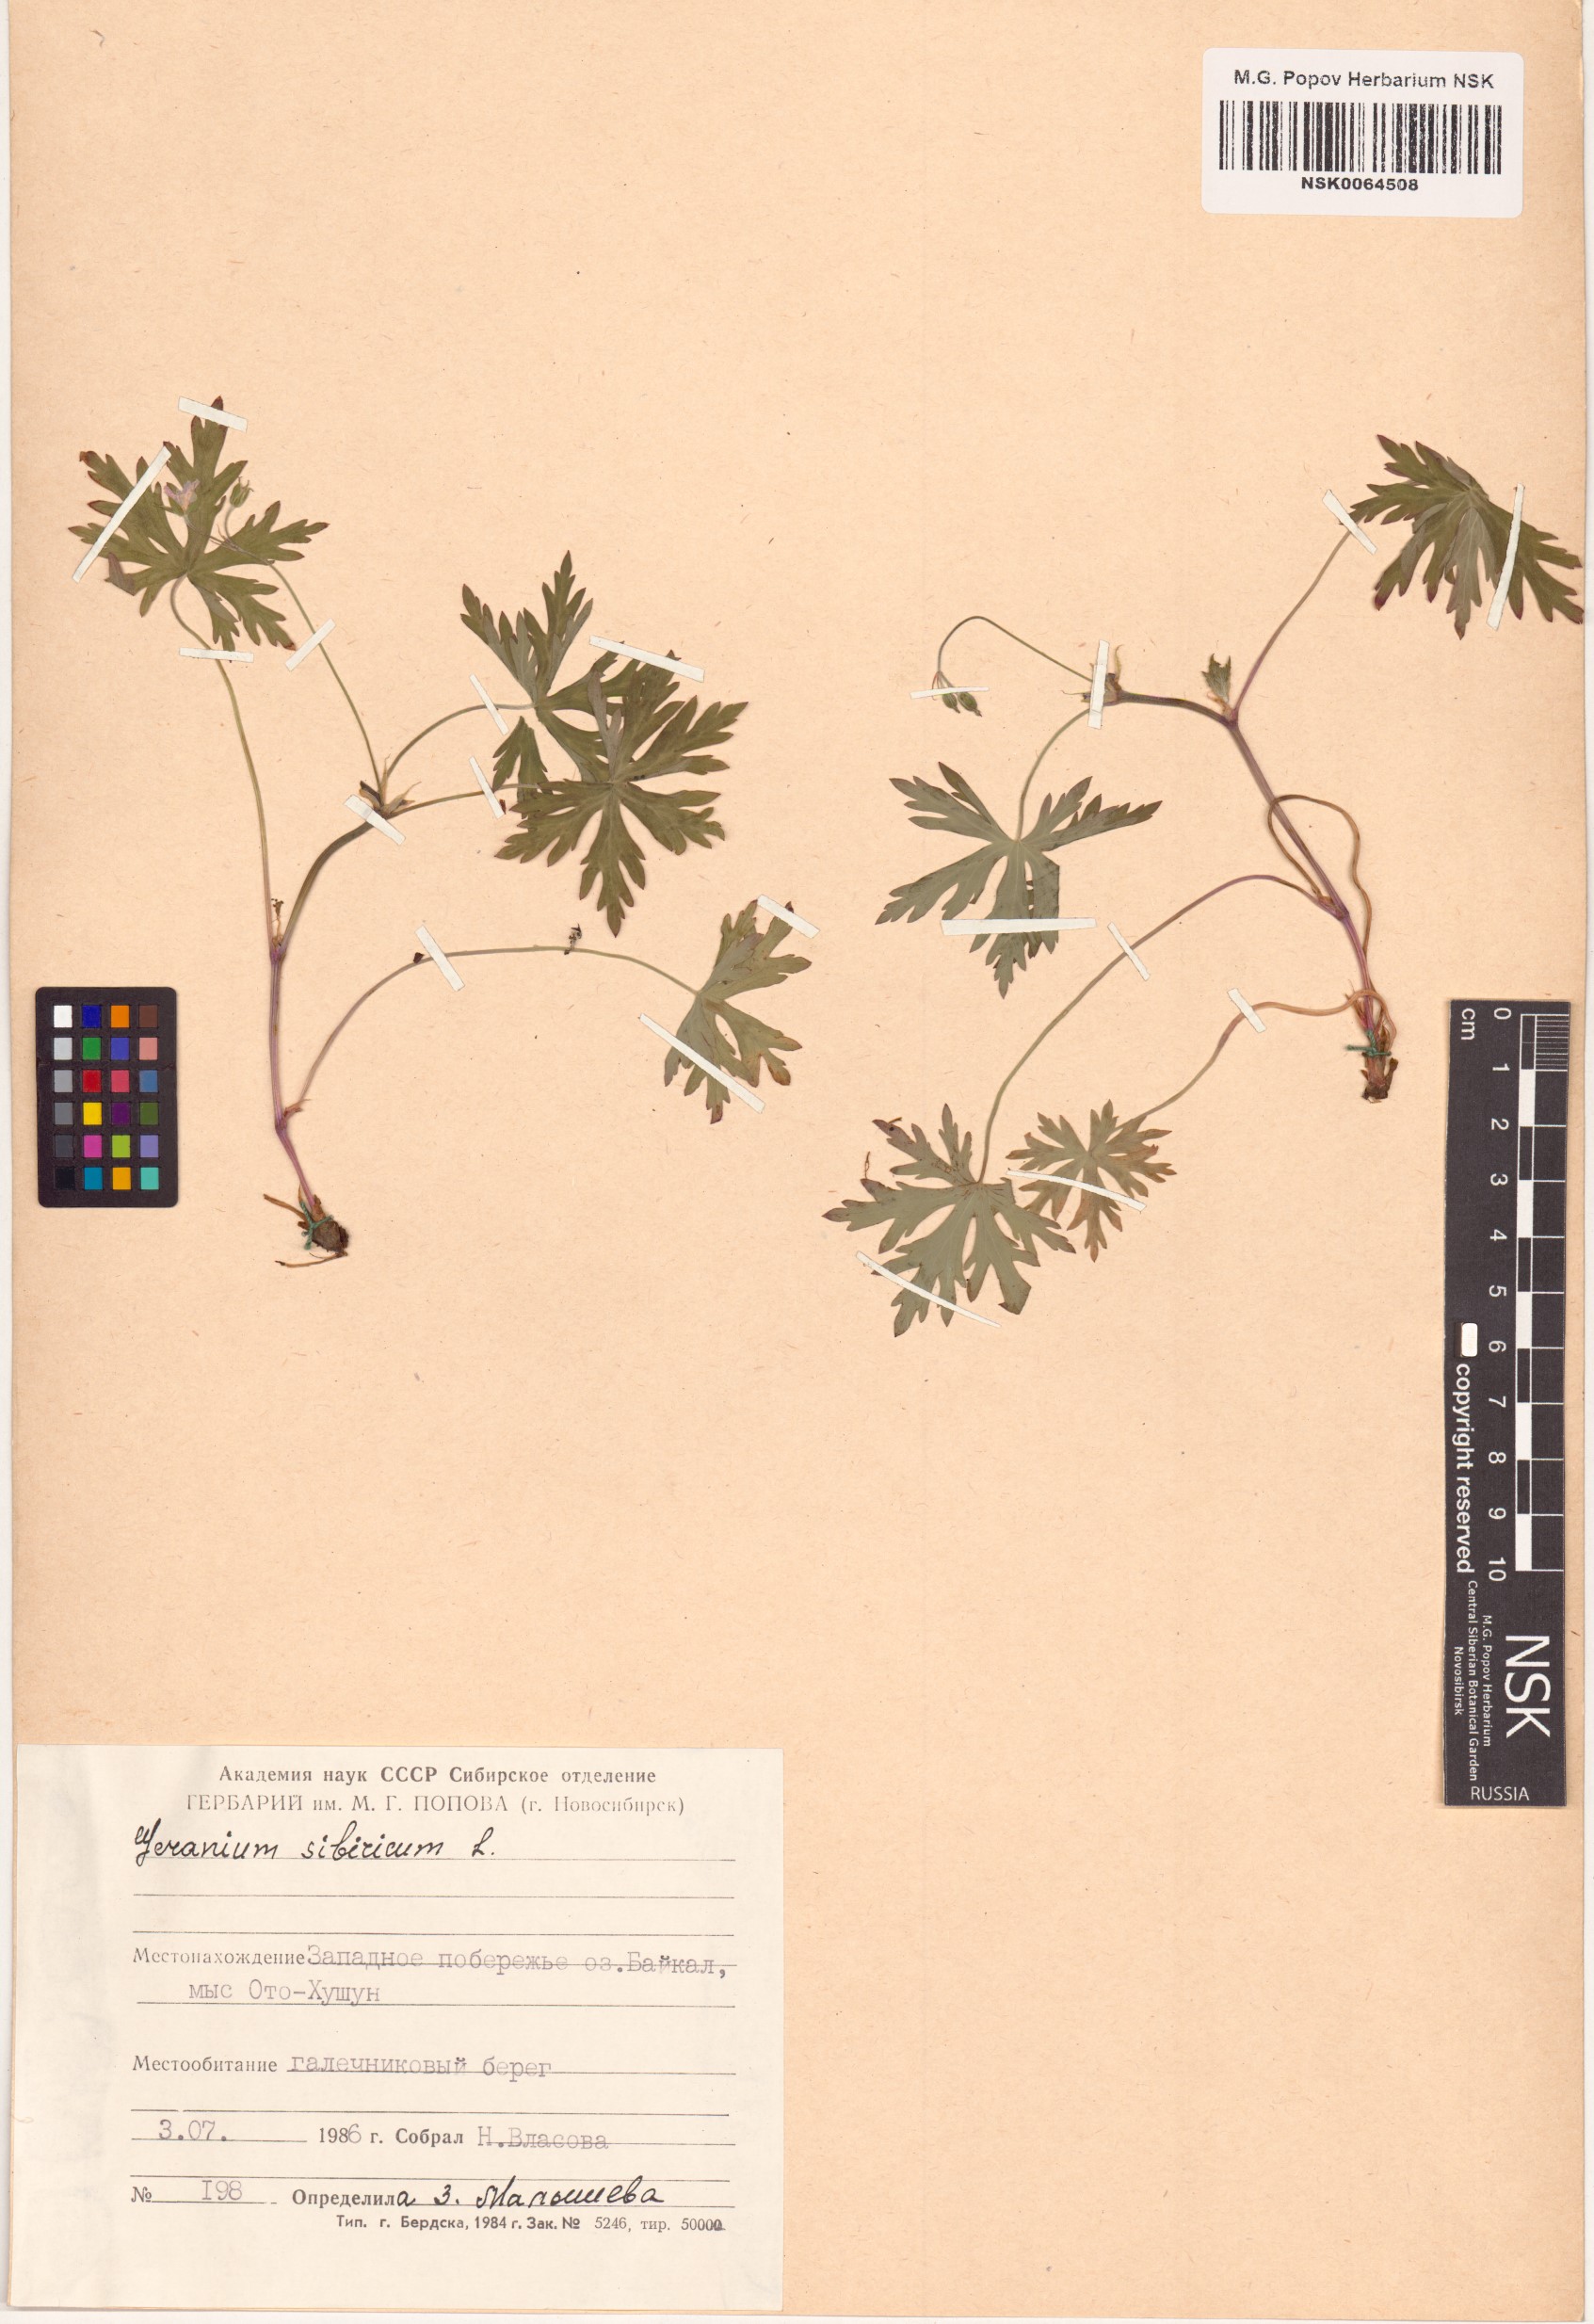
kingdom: Plantae
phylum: Tracheophyta
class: Magnoliopsida
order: Geraniales
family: Geraniaceae
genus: Geranium
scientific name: Geranium sibiricum
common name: Siberian crane's-bill
